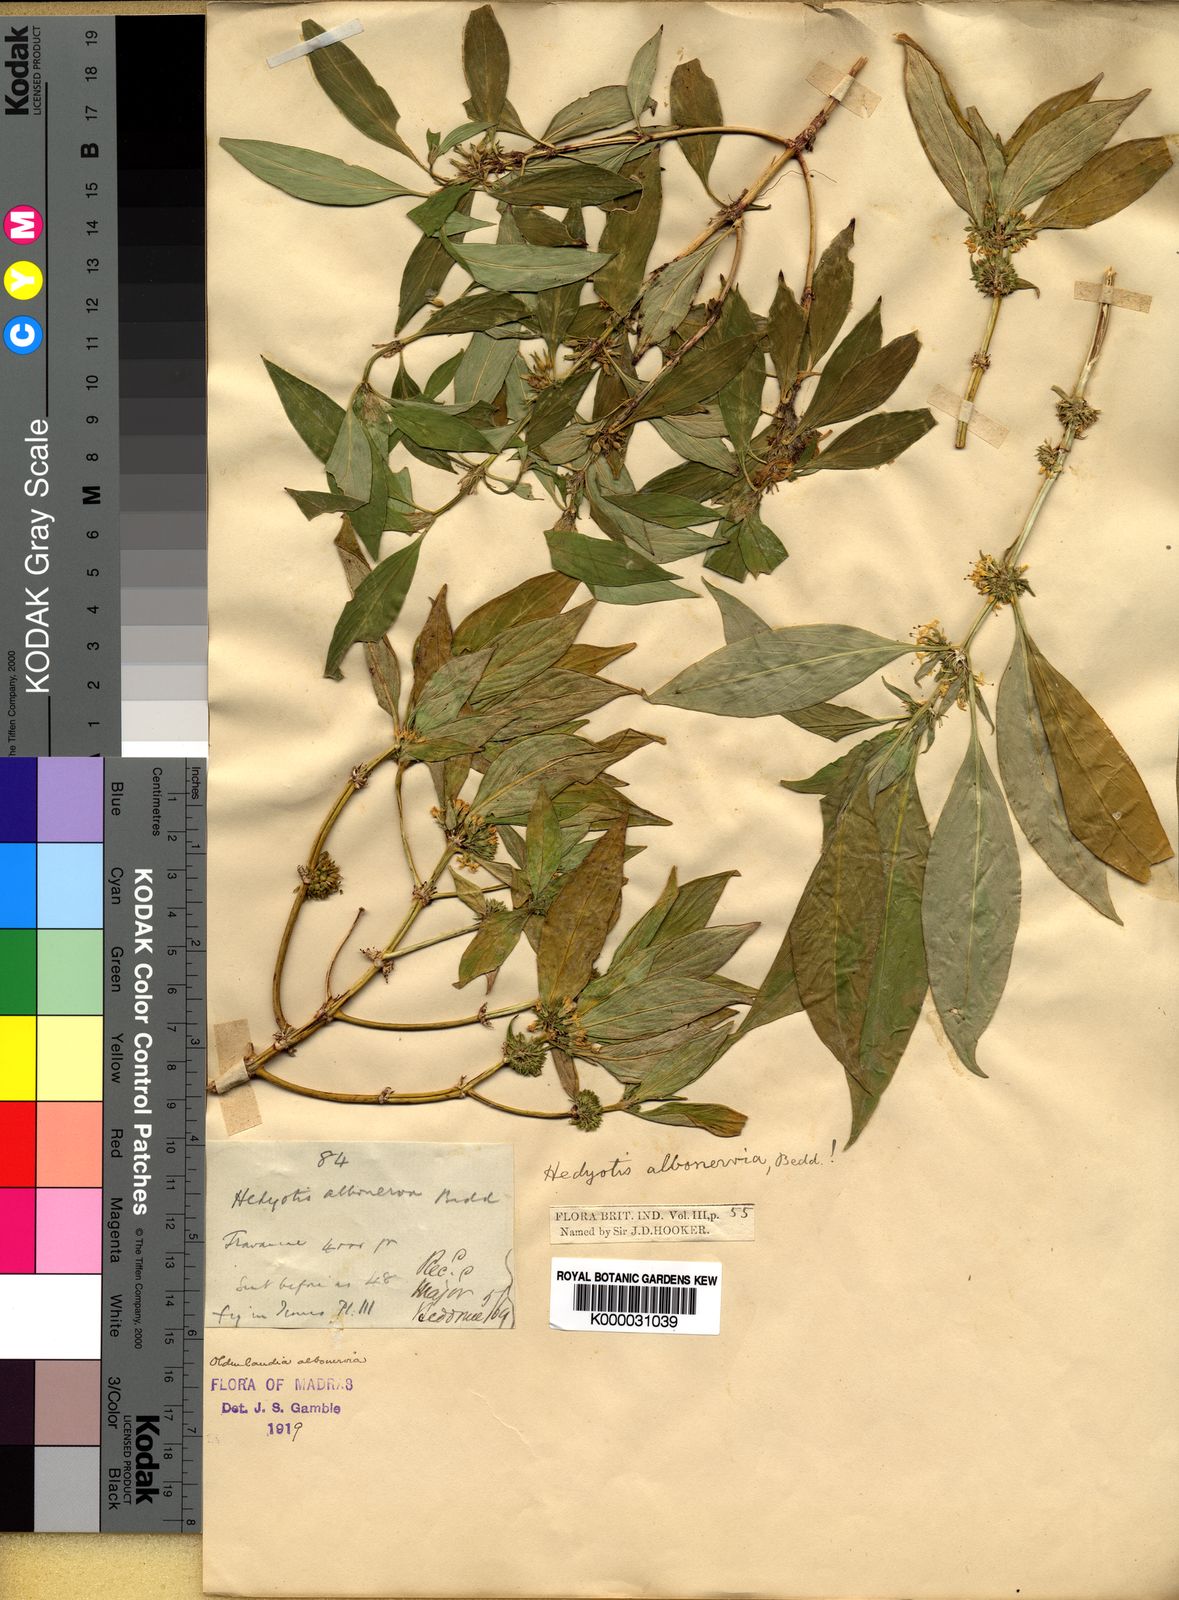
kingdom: Plantae
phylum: Tracheophyta
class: Magnoliopsida
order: Gentianales
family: Rubiaceae
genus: Hedyotis
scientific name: Hedyotis albonerva
